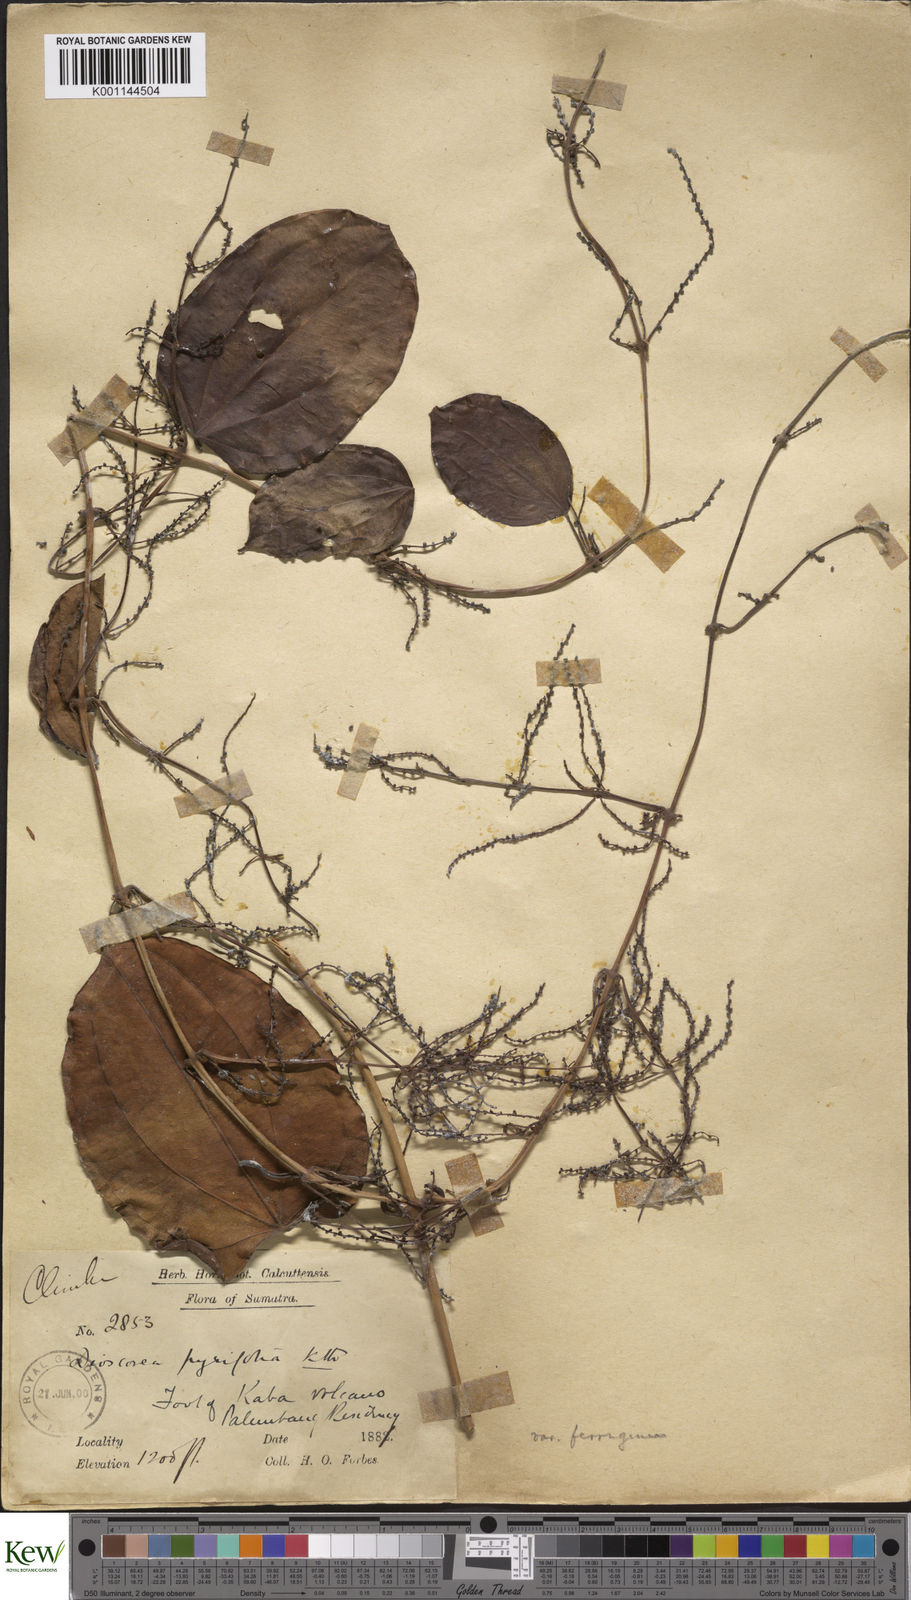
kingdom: Plantae
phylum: Tracheophyta
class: Liliopsida
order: Dioscoreales
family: Dioscoreaceae
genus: Dioscorea
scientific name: Dioscorea pyrifolia
